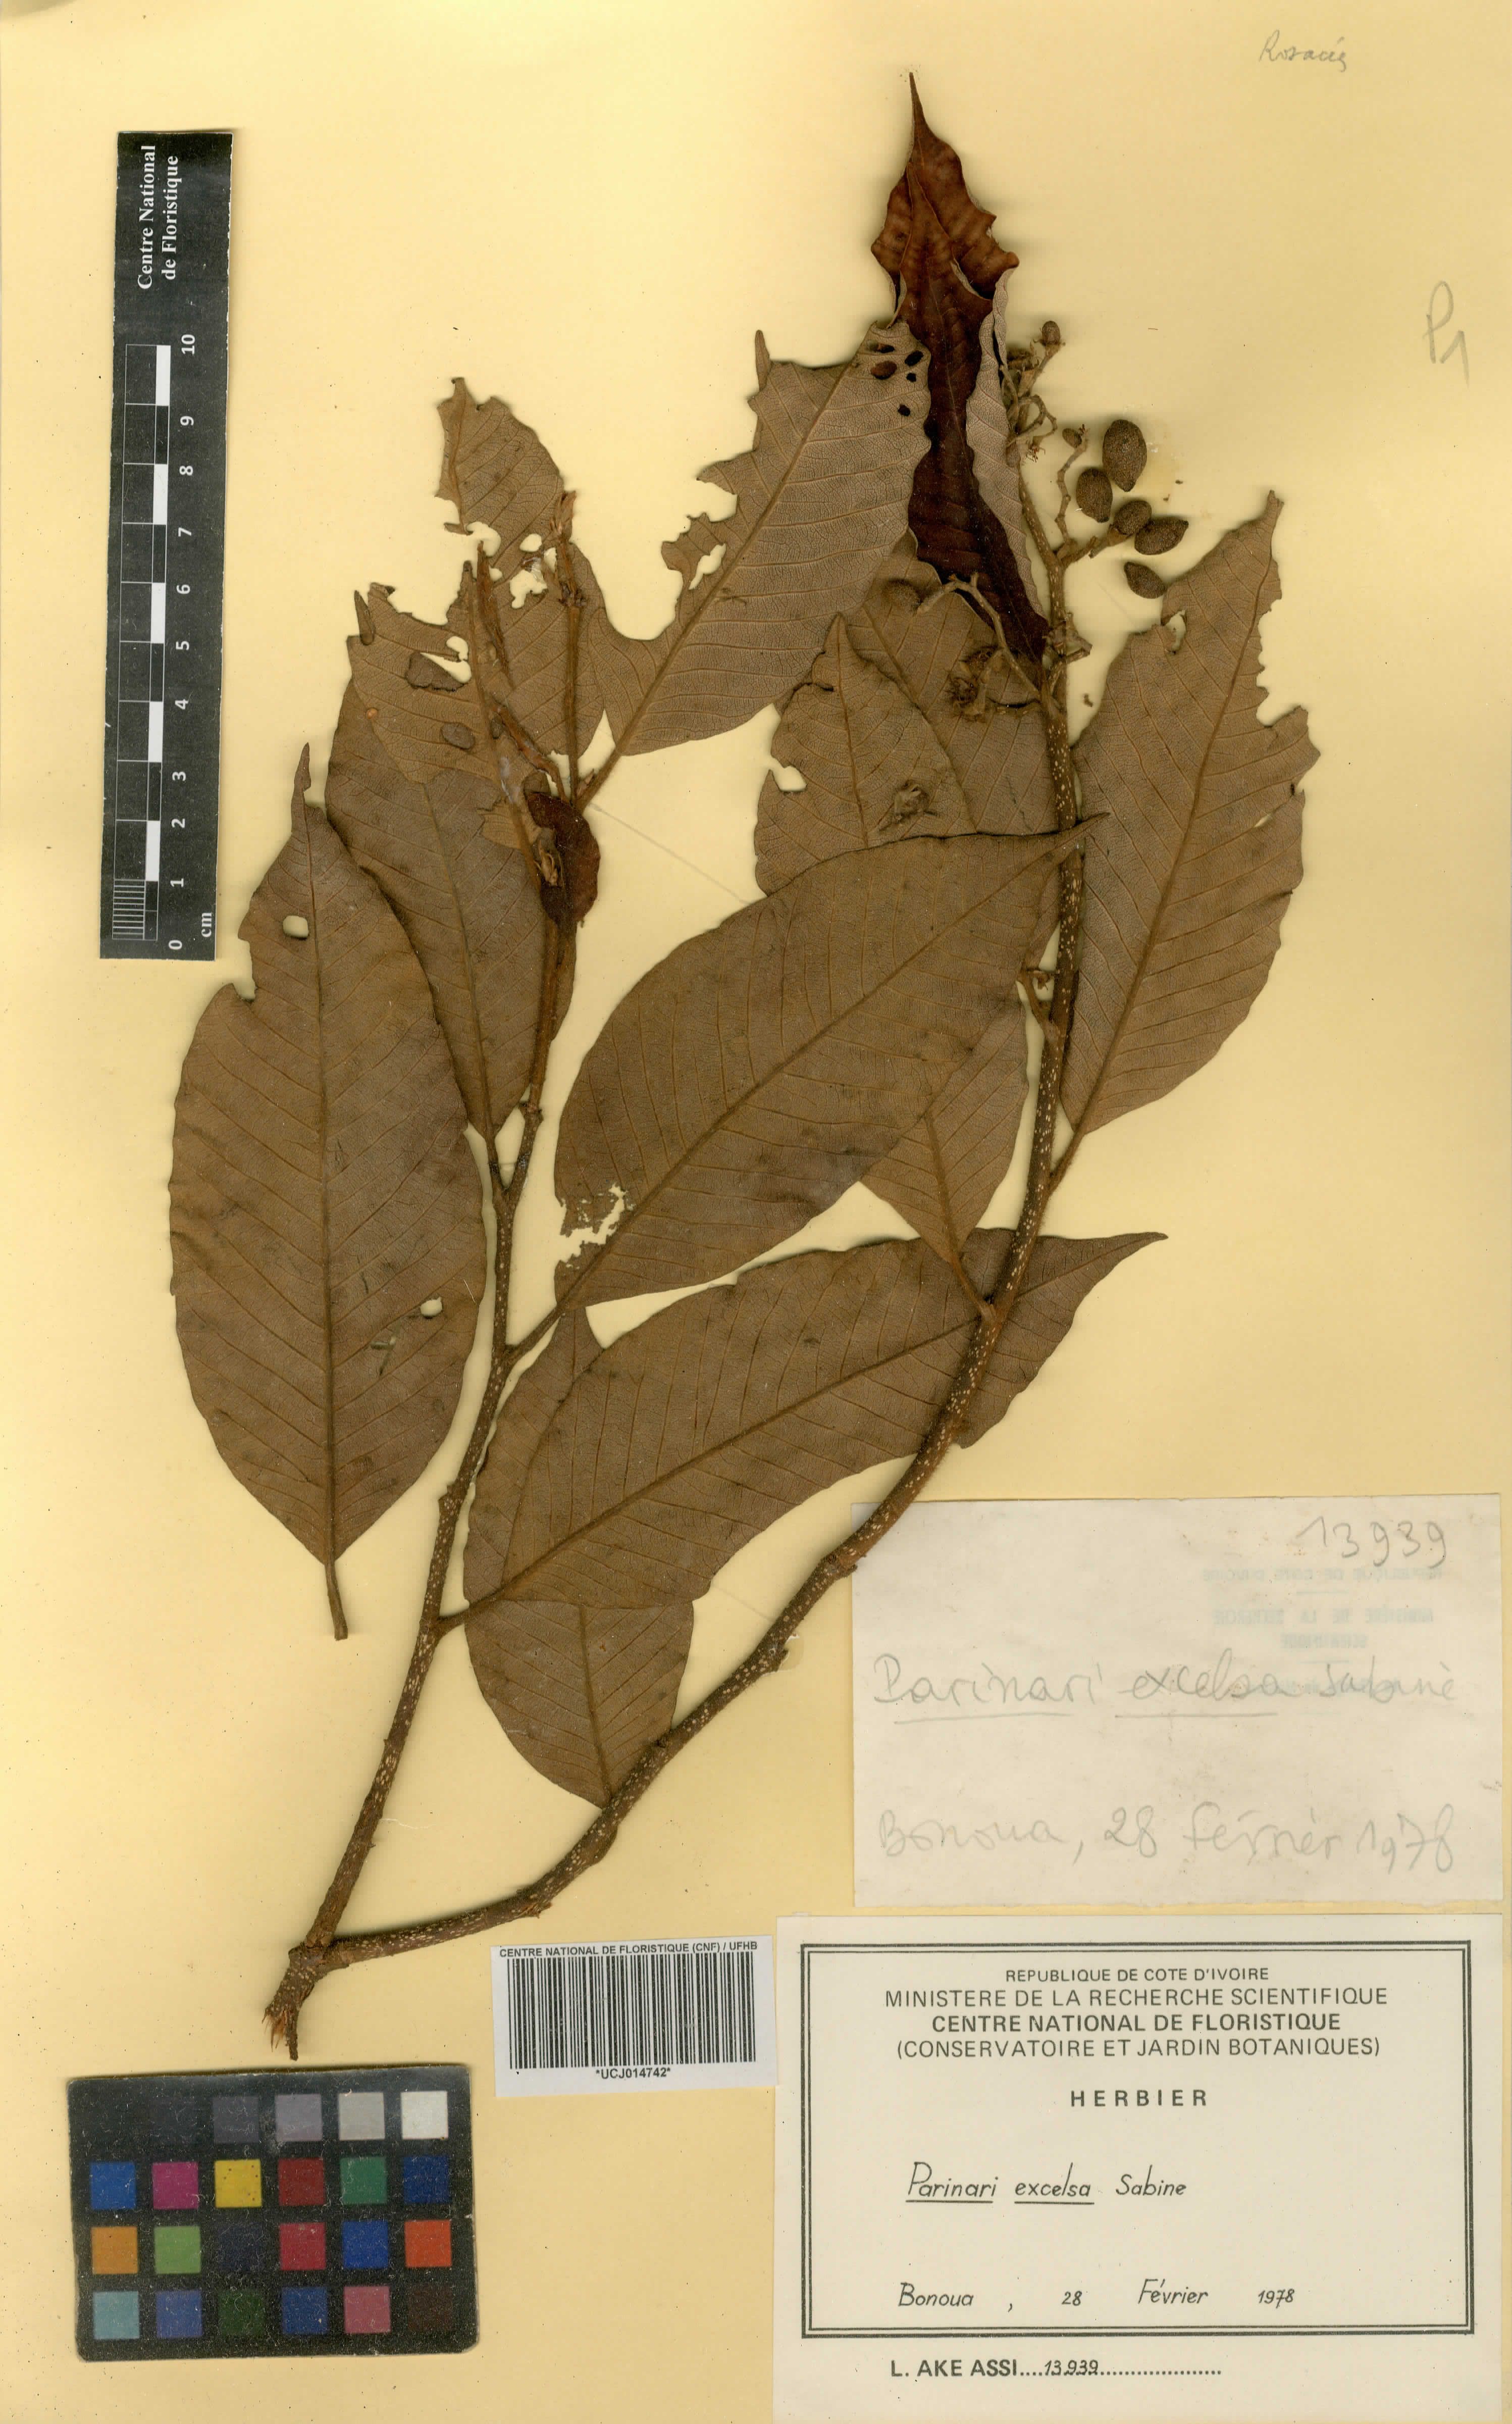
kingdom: Plantae
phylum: Tracheophyta
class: Magnoliopsida
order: Malpighiales
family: Chrysobalanaceae
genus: Parinari
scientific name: Parinari excelsa
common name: Guinea-plum
